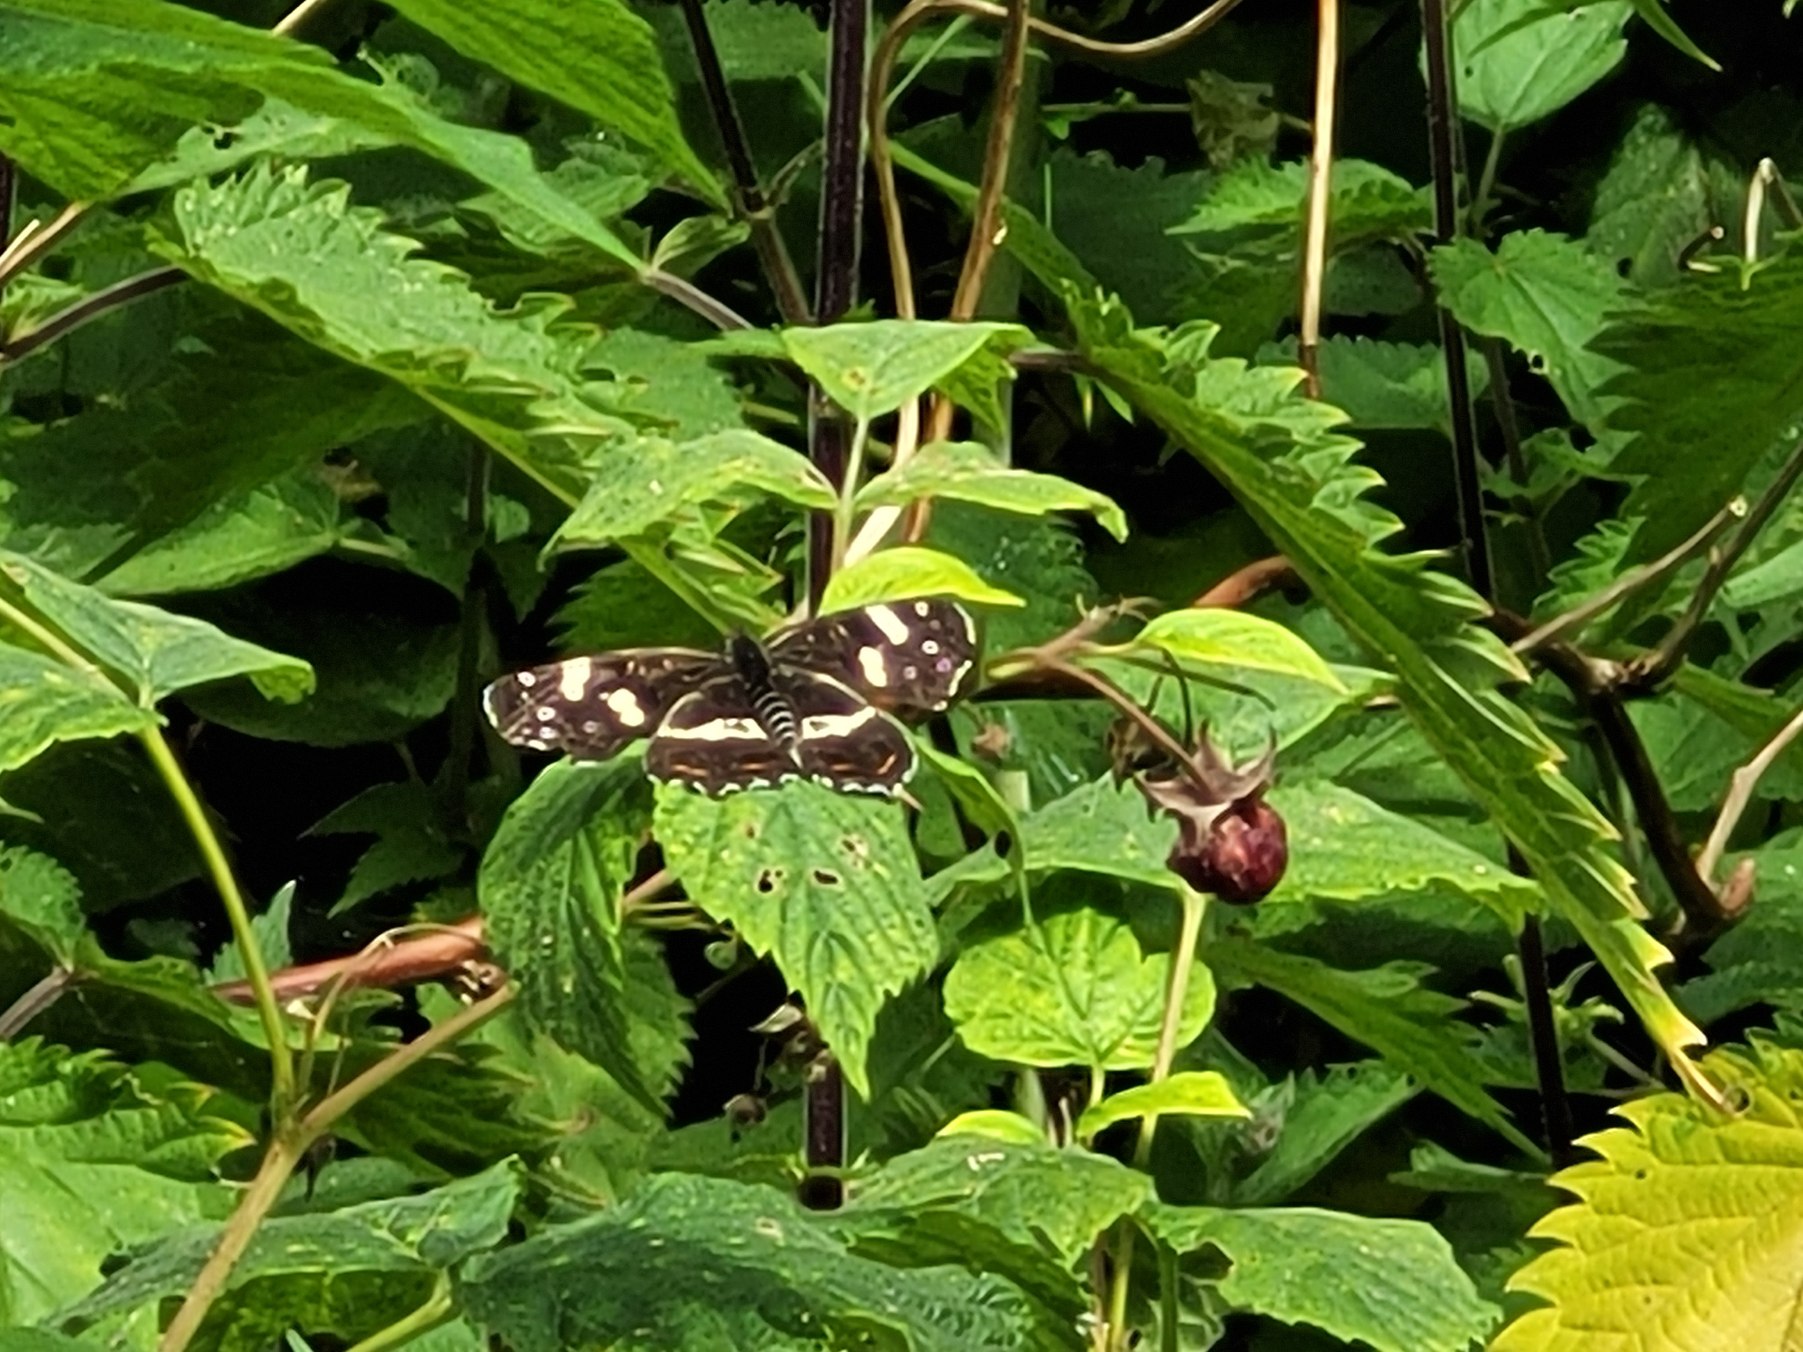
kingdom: Animalia
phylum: Arthropoda
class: Insecta
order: Lepidoptera
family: Nymphalidae
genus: Araschnia
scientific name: Araschnia levana
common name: Nældesommerfugl
